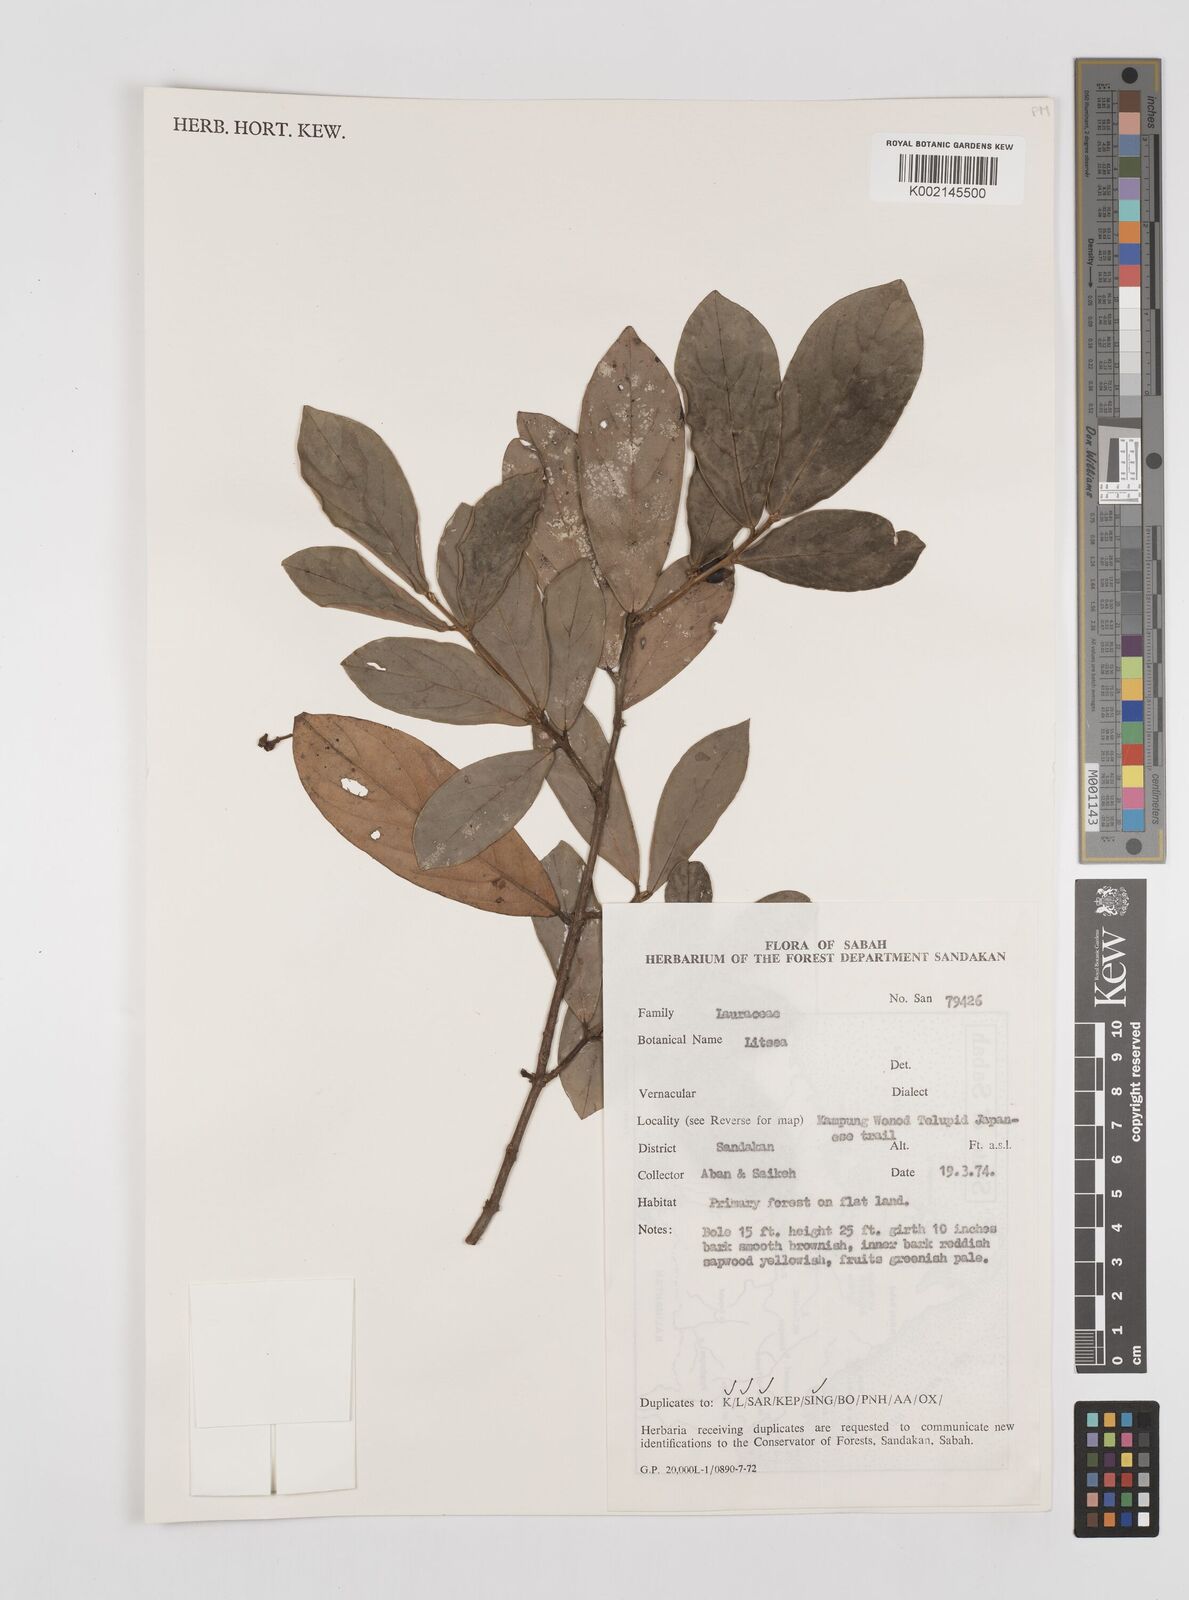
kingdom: Plantae
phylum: Tracheophyta
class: Magnoliopsida
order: Laurales
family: Lauraceae
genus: Litsea
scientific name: Litsea
